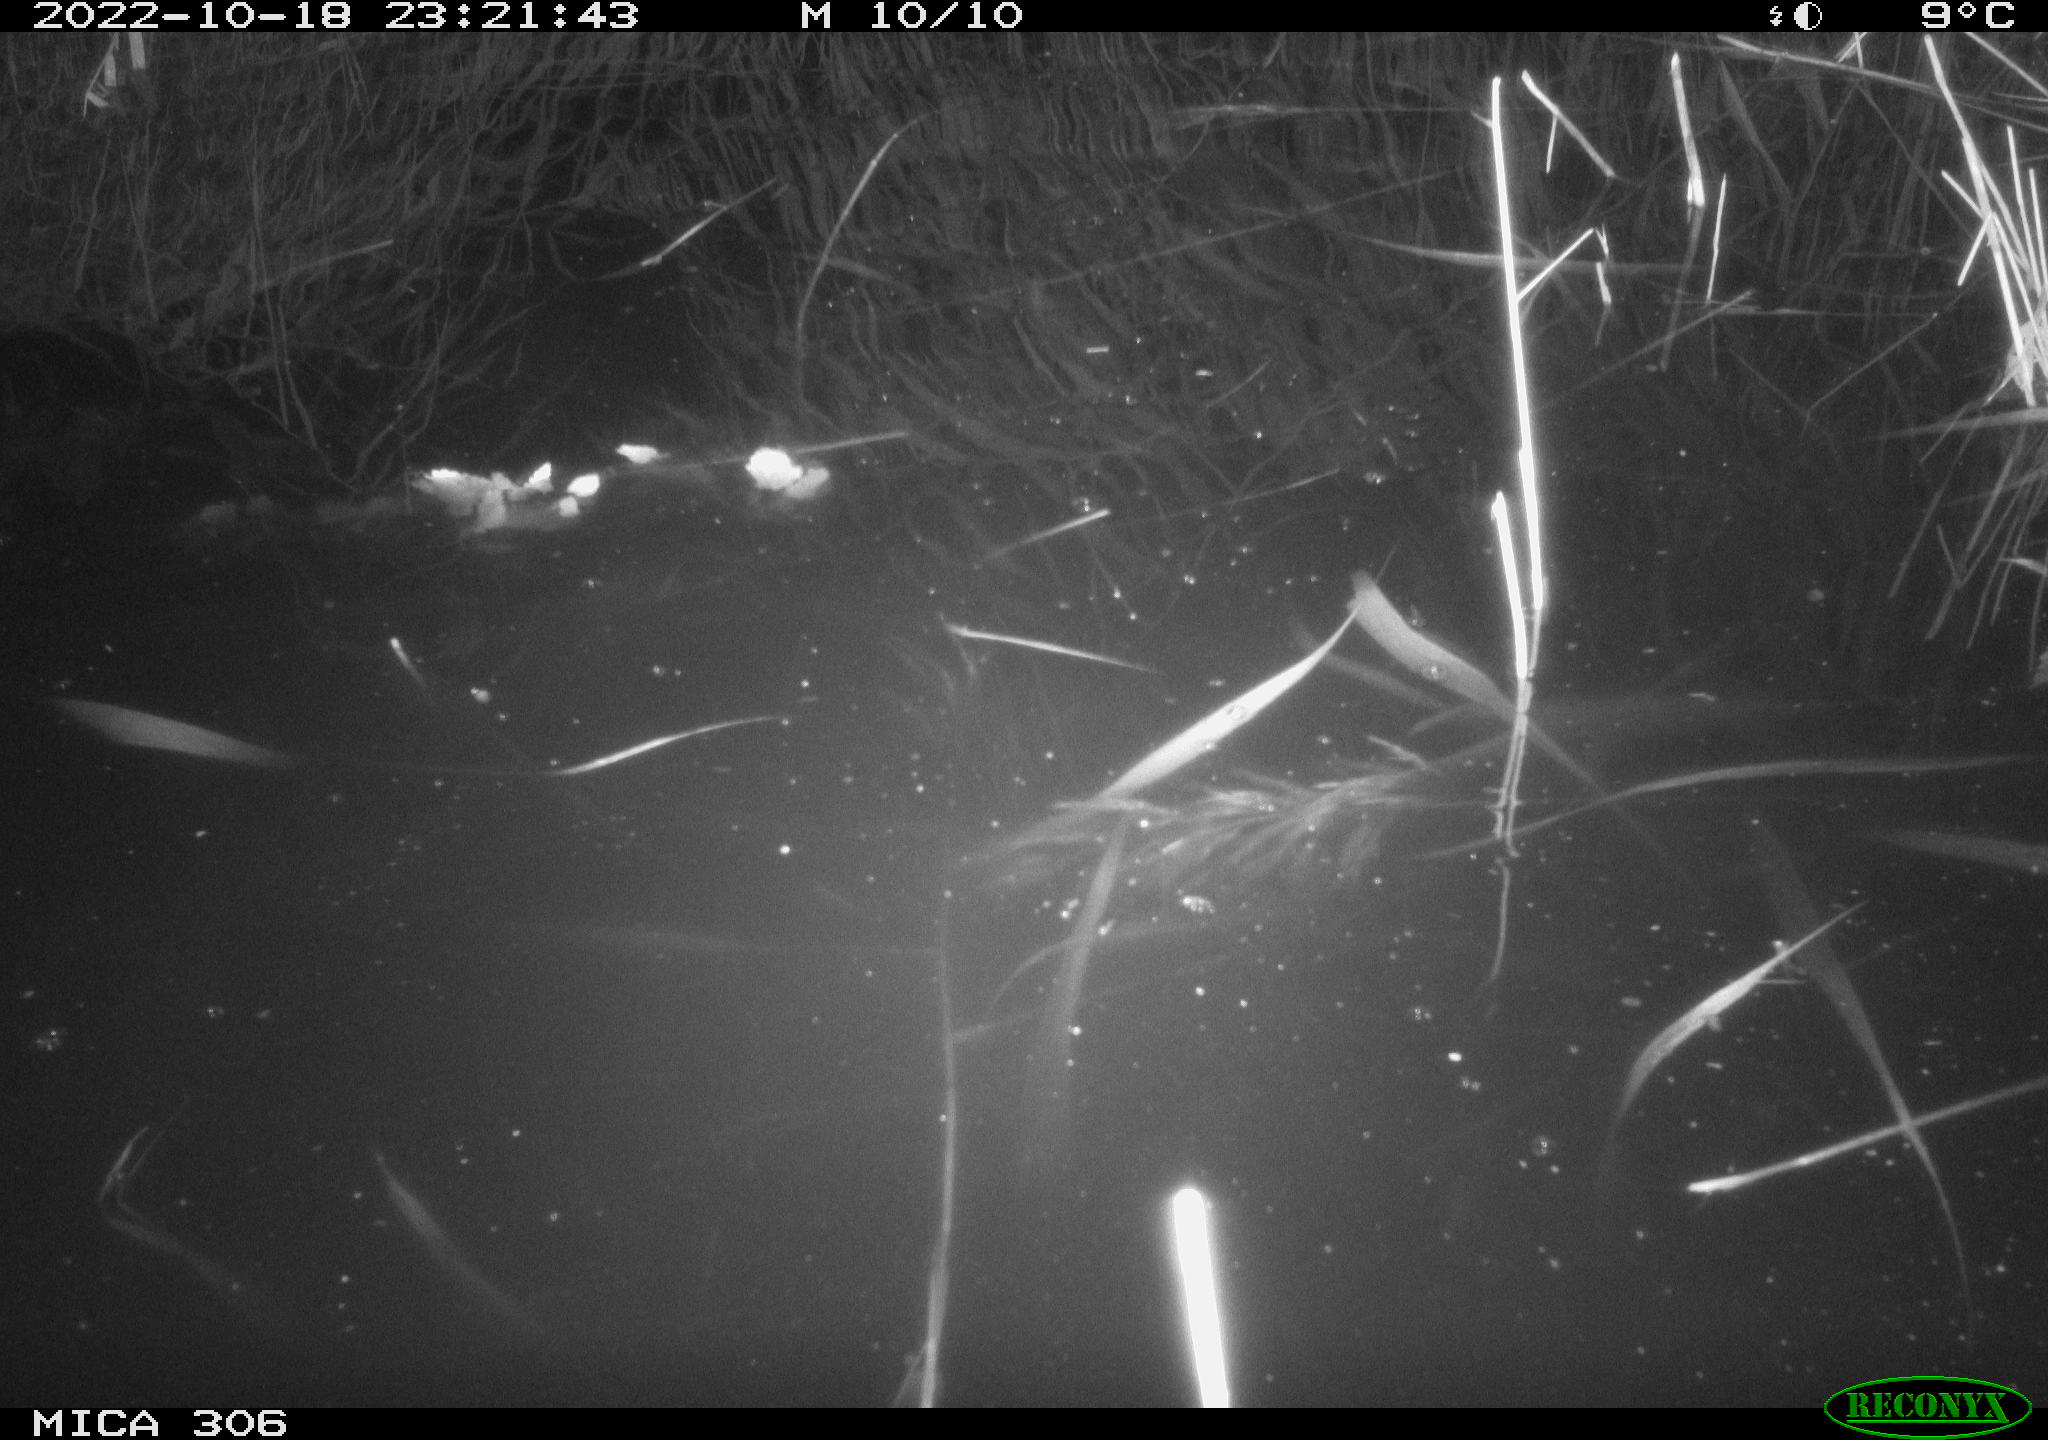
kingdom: Animalia
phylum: Chordata
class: Mammalia
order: Rodentia
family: Cricetidae
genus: Ondatra
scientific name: Ondatra zibethicus
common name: Muskrat
